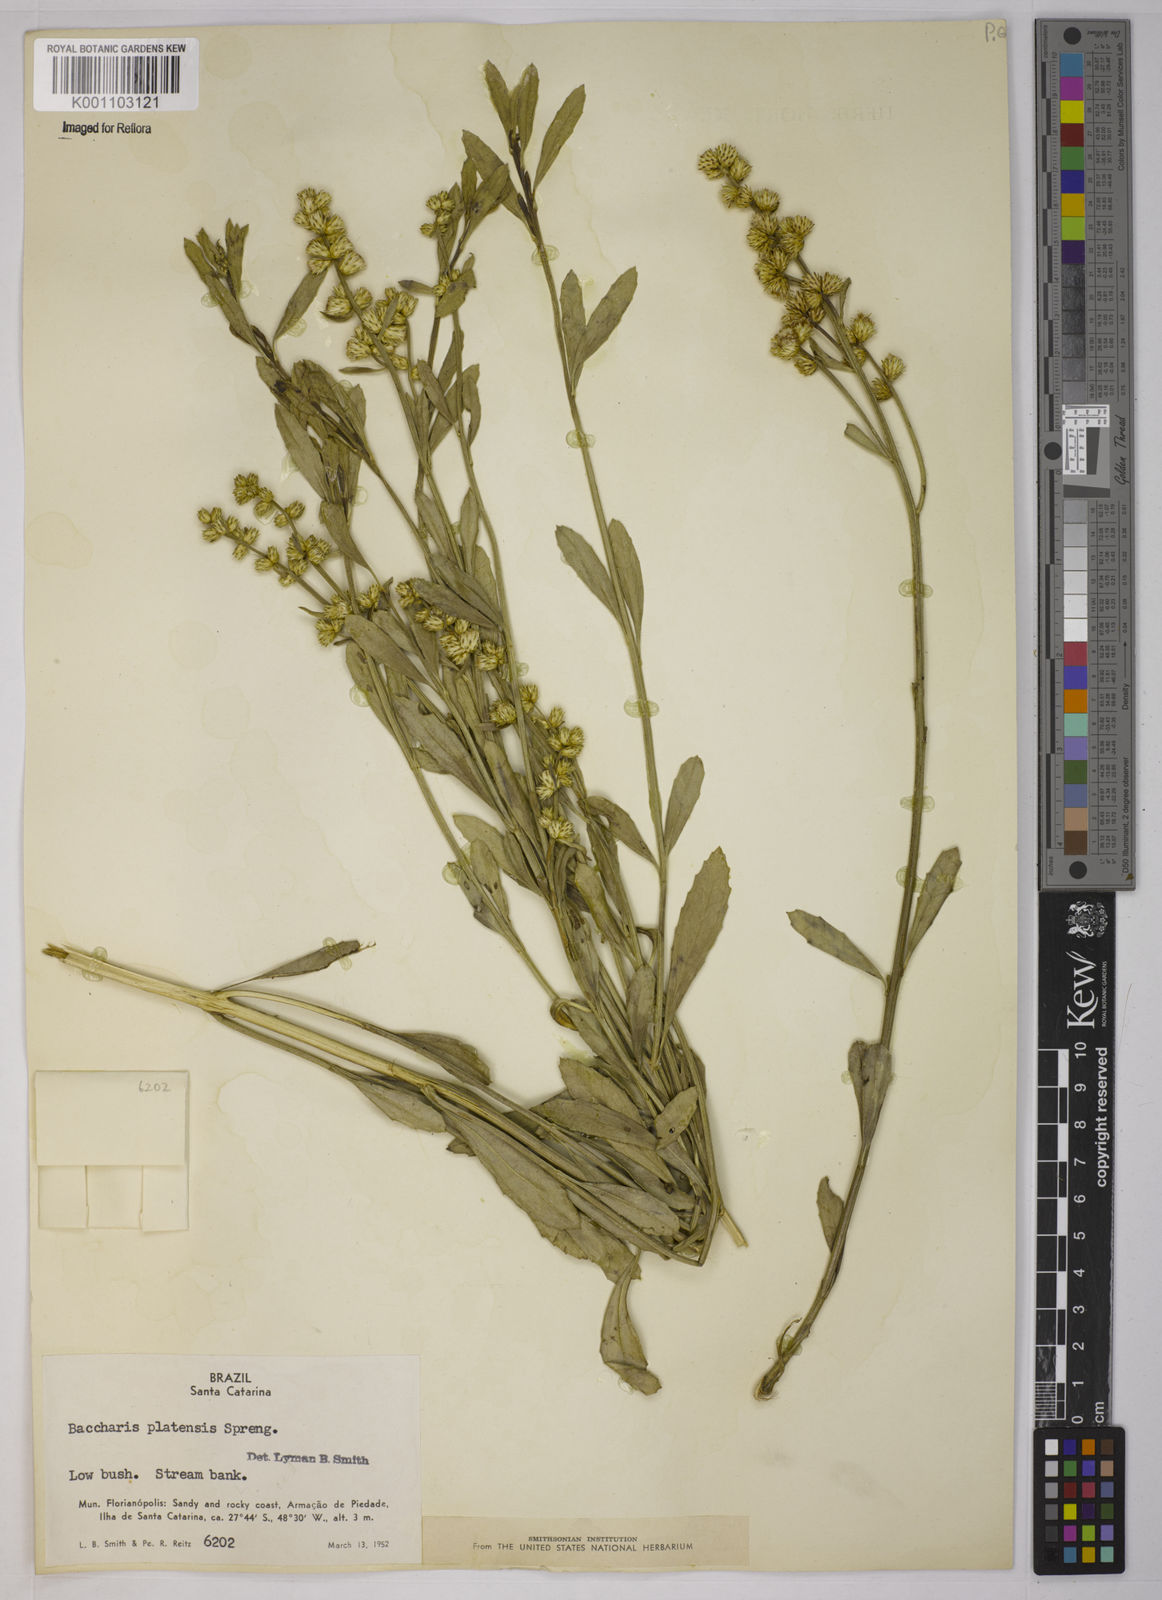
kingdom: Plantae
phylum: Tracheophyta
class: Magnoliopsida
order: Asterales
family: Asteraceae
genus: Baccharis
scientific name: Baccharis hieronymi
